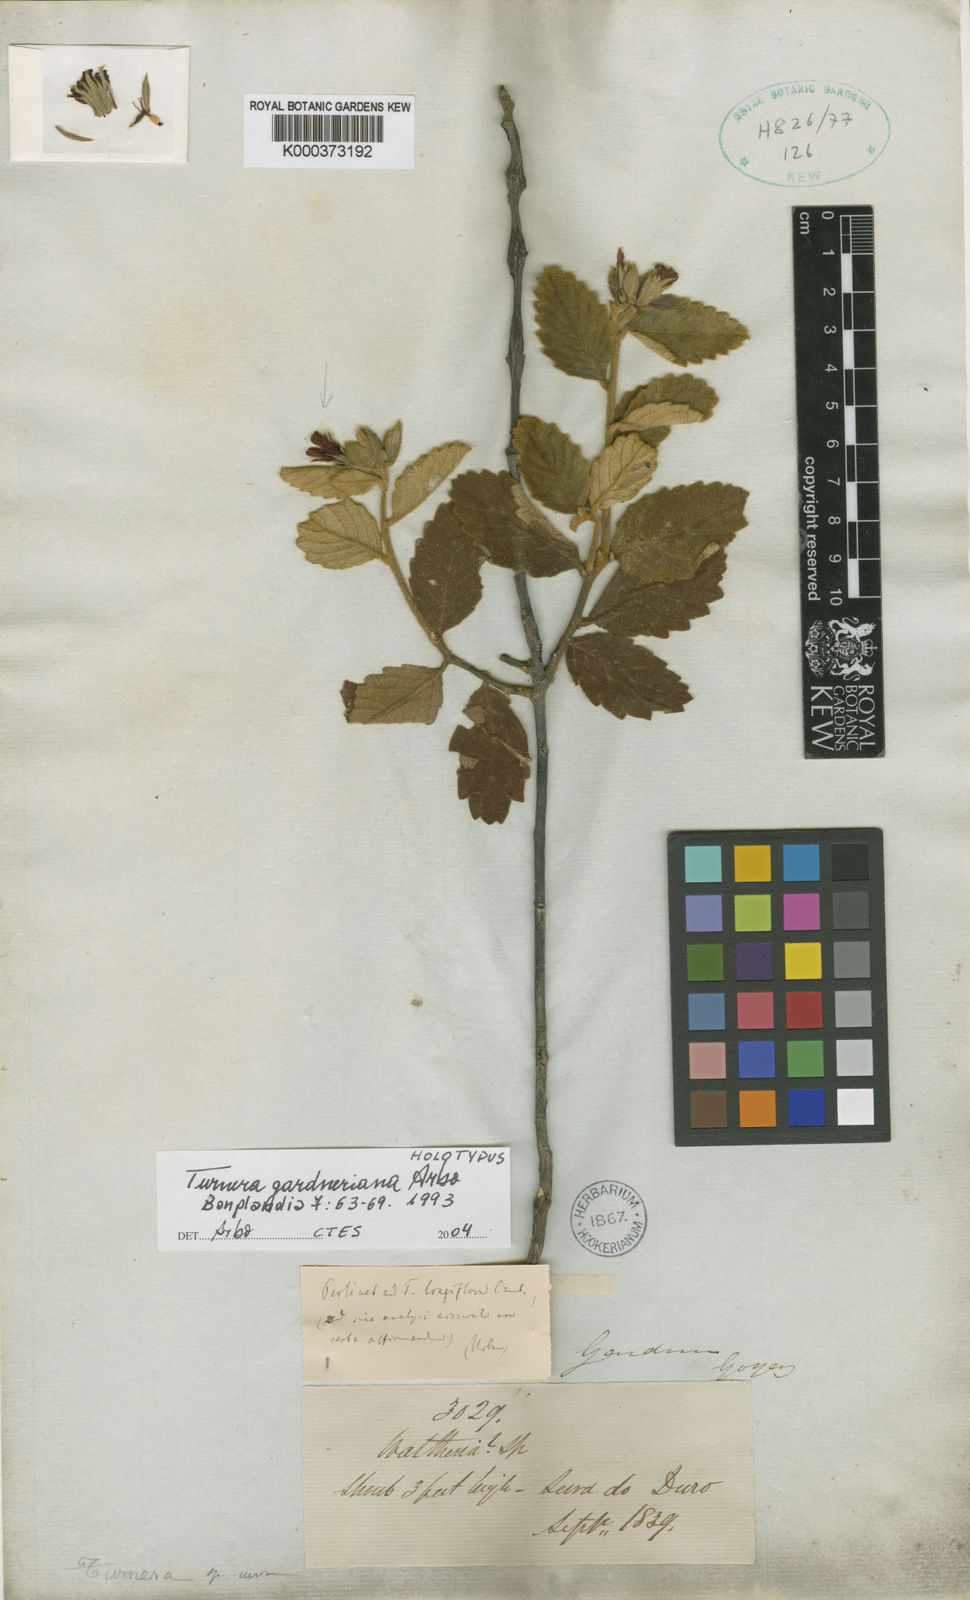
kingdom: Plantae
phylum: Tracheophyta
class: Magnoliopsida
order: Malpighiales
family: Turneraceae
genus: Turnera
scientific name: Turnera gardneriana
